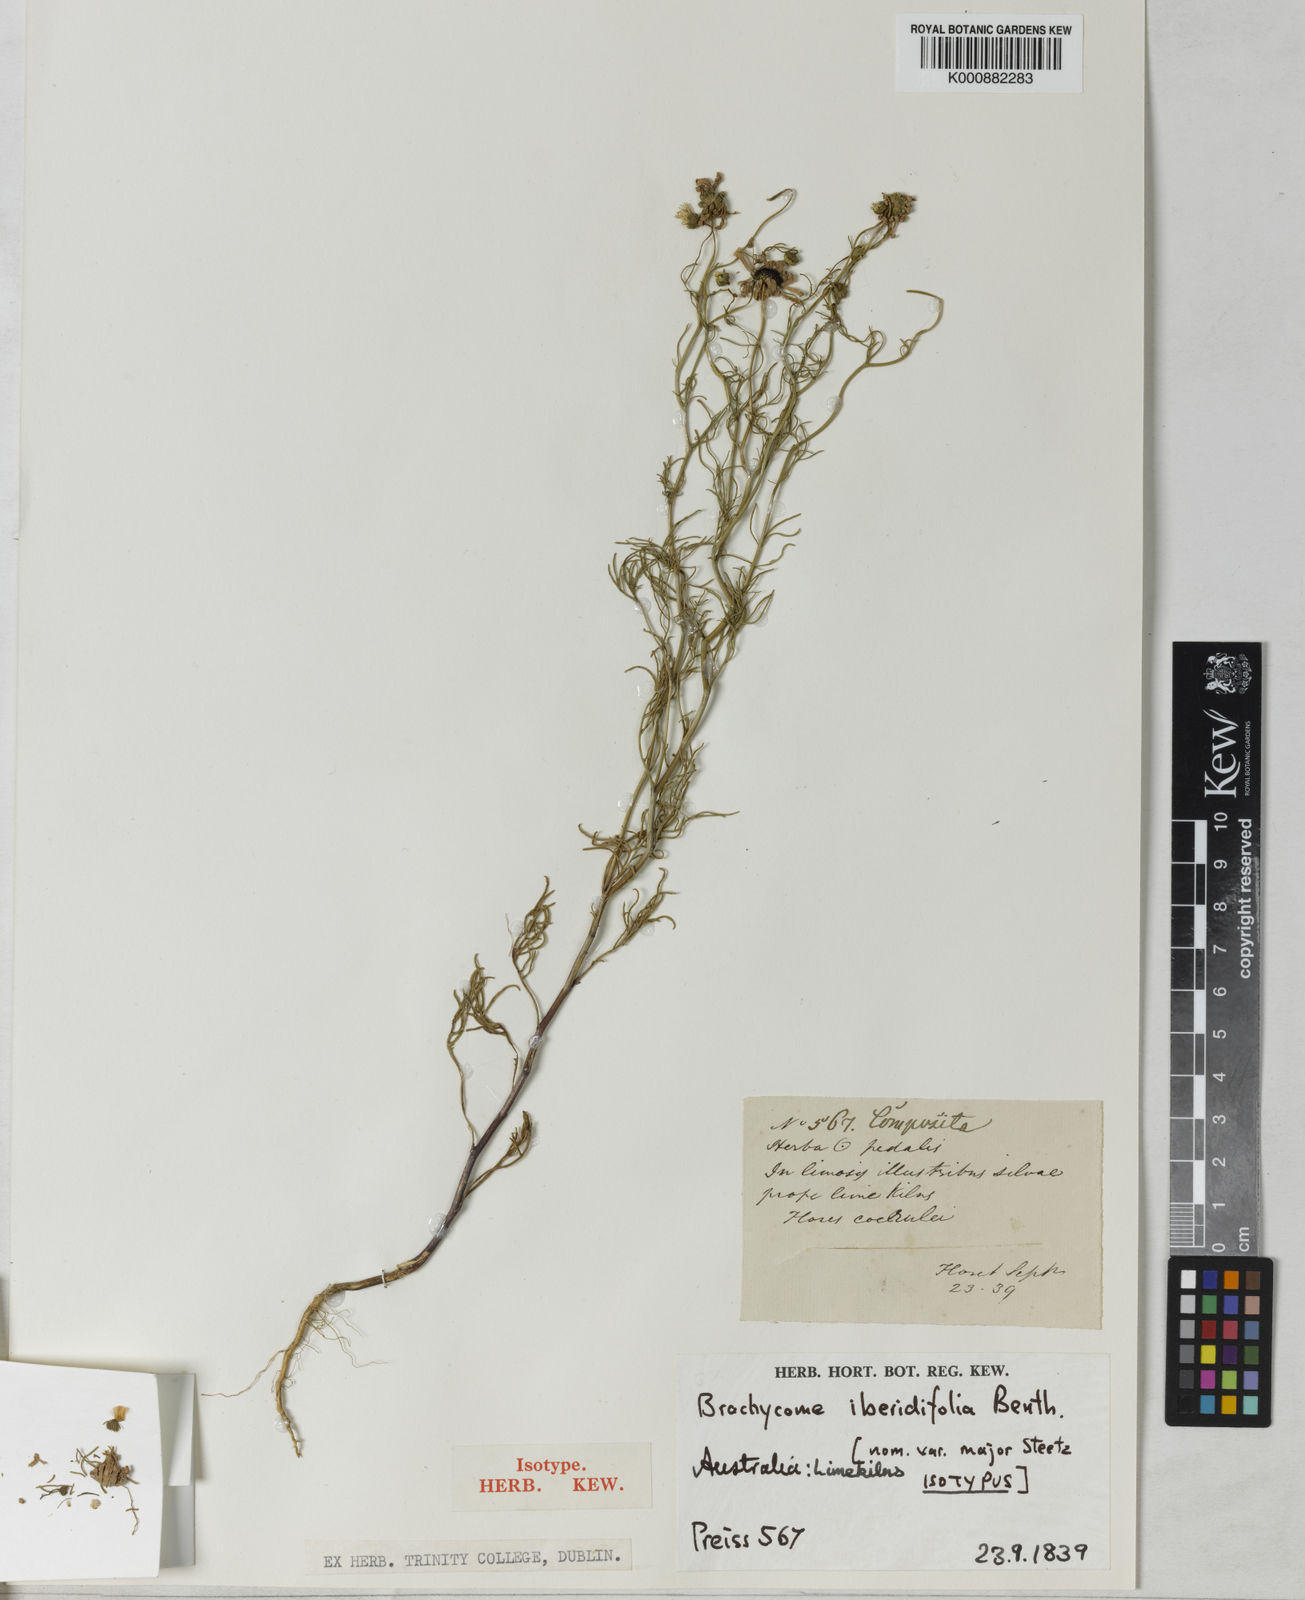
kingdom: Plantae
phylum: Tracheophyta
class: Magnoliopsida
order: Asterales
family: Asteraceae
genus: Brachyscome
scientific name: Brachyscome iberidifolia
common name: Swan river daisy
